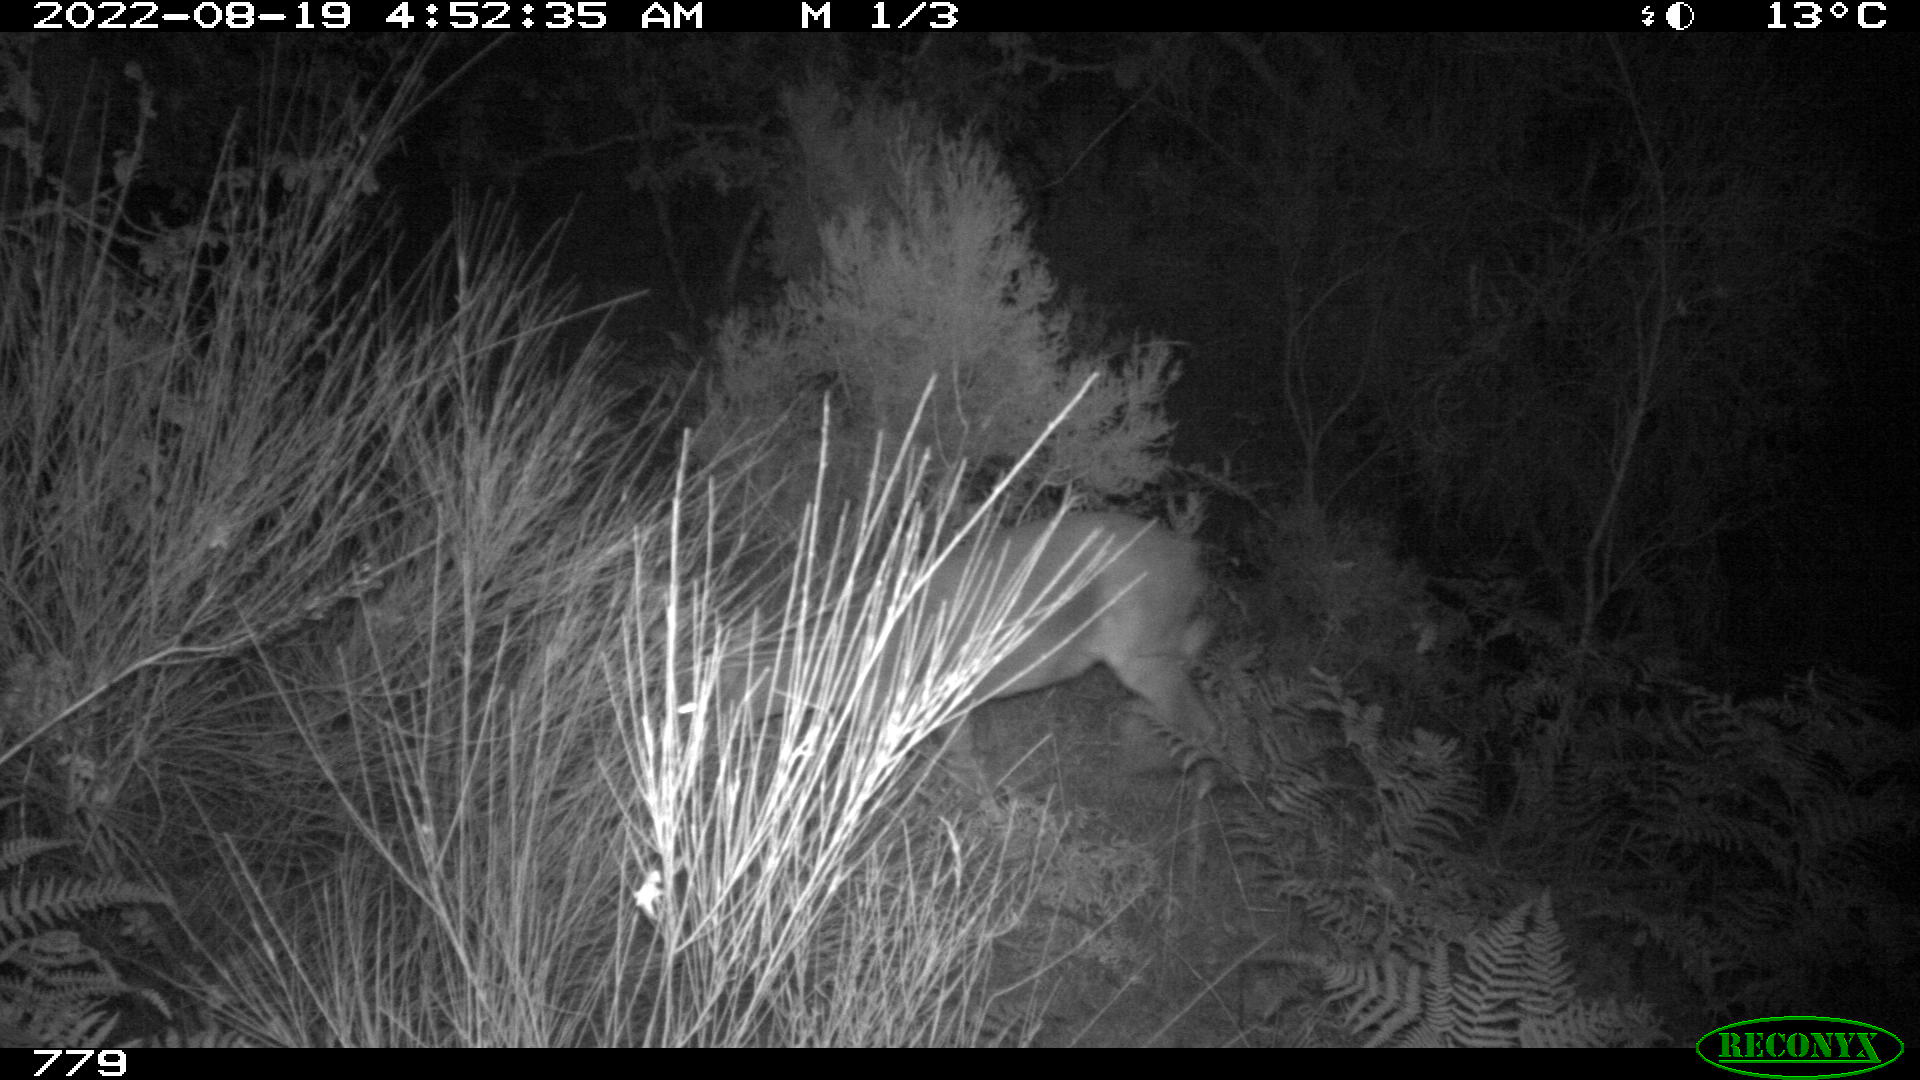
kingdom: Animalia
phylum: Chordata
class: Mammalia
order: Artiodactyla
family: Cervidae
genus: Capreolus
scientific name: Capreolus capreolus
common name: Western roe deer
